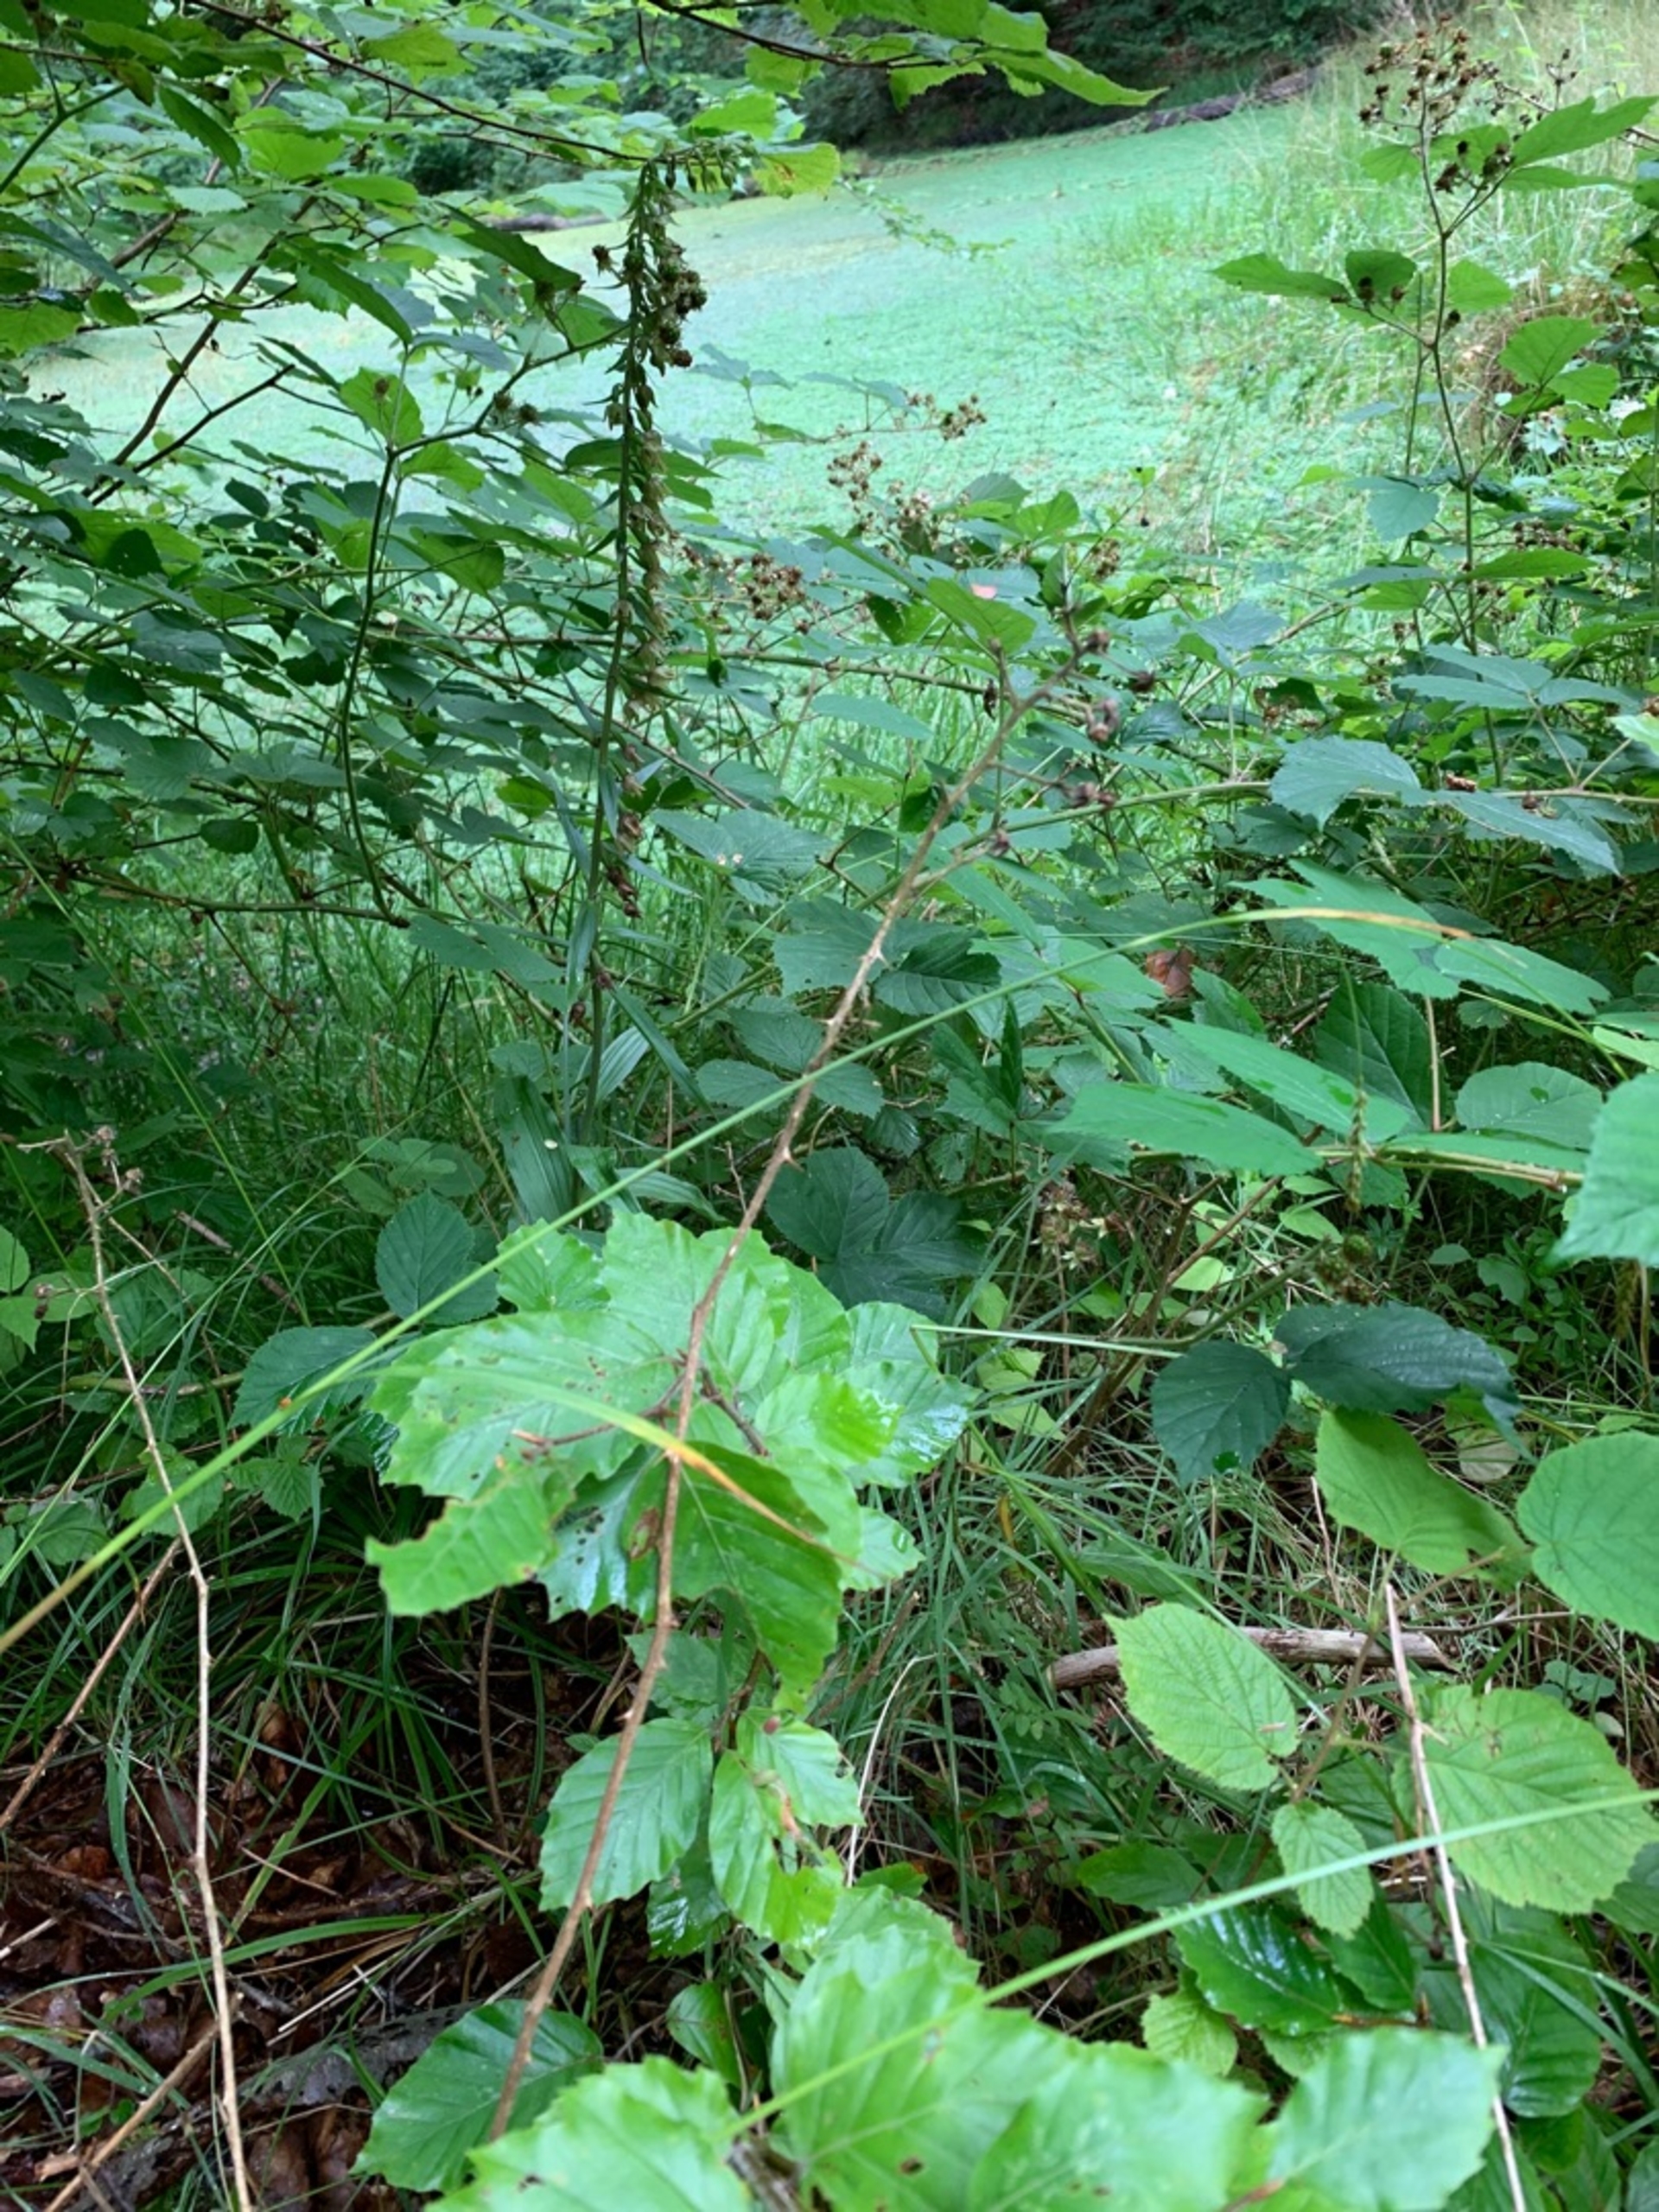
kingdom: Plantae
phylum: Tracheophyta
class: Liliopsida
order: Asparagales
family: Orchidaceae
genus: Epipactis
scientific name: Epipactis helleborine
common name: Skov-hullæbe
